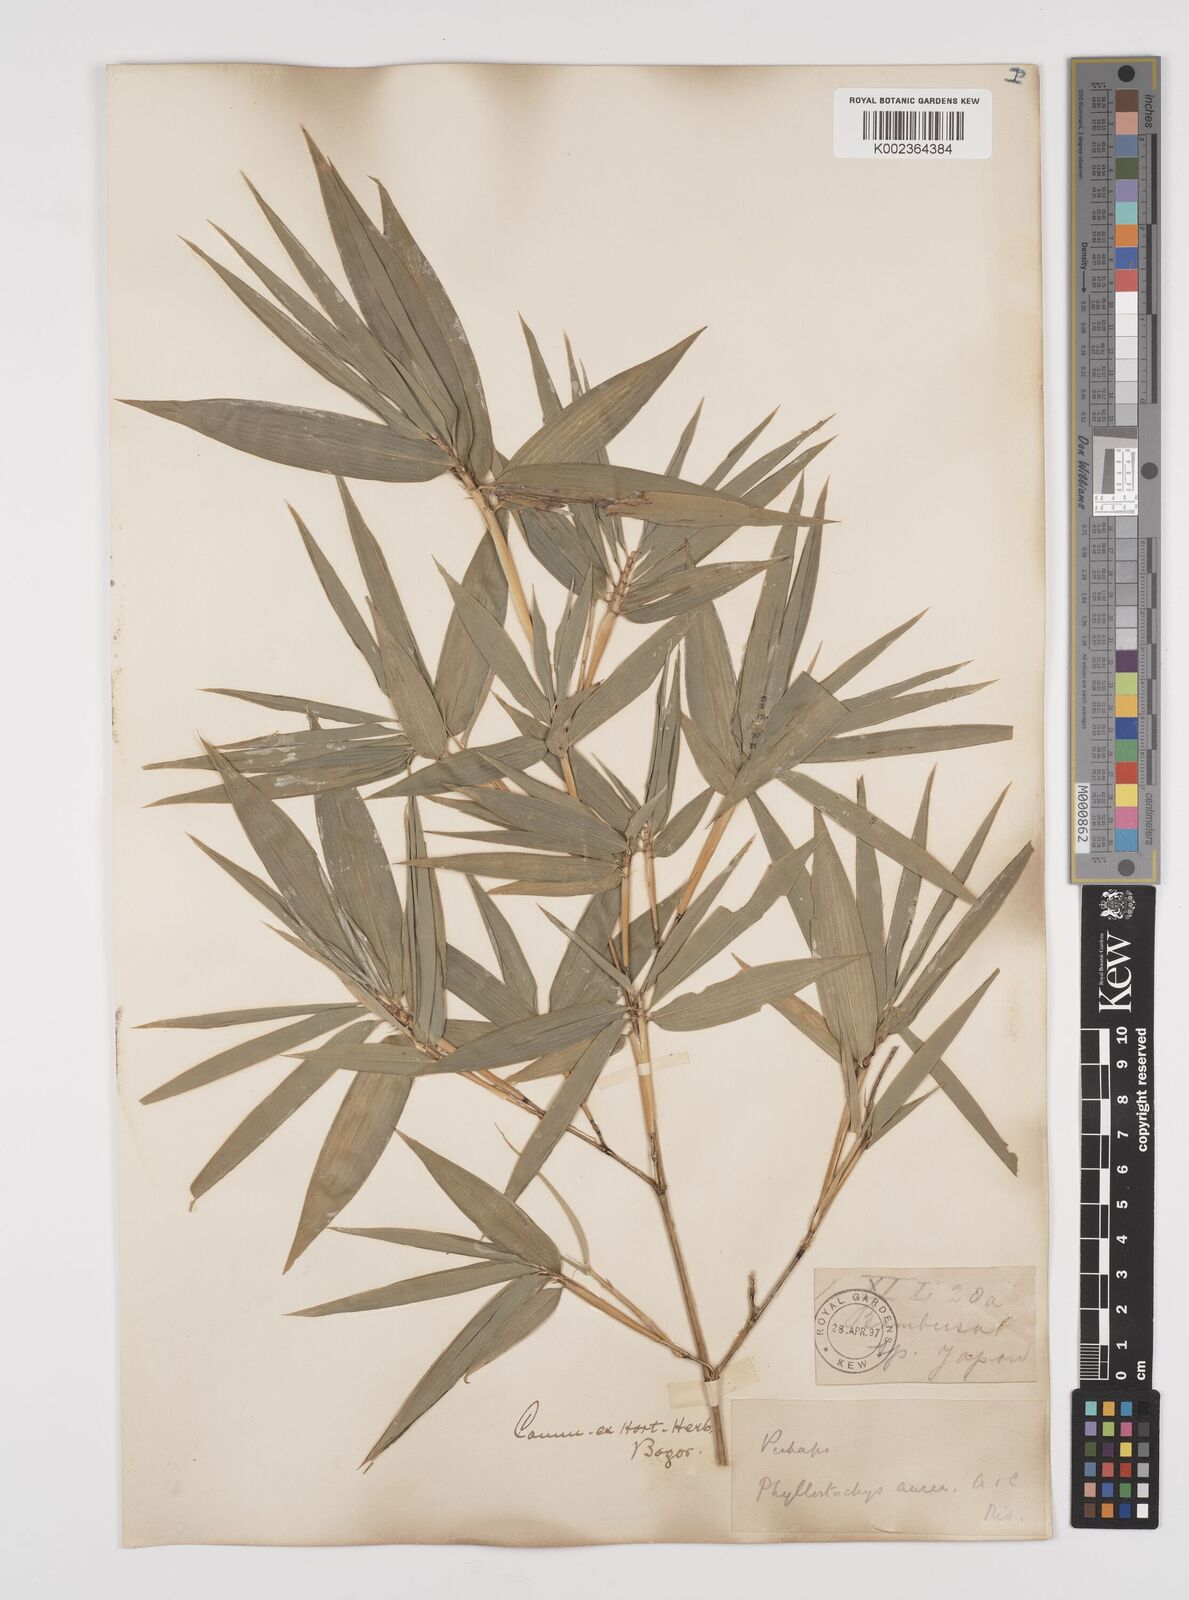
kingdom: Plantae
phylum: Tracheophyta
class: Liliopsida
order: Poales
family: Poaceae
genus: Phyllostachys
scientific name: Phyllostachys
